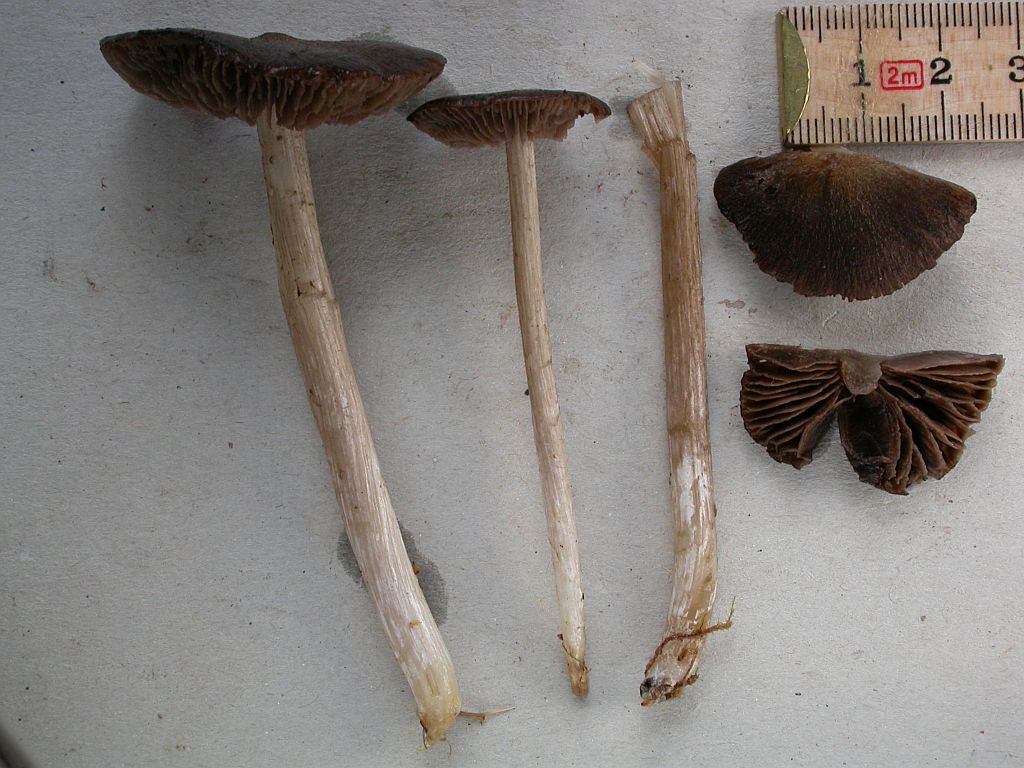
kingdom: Fungi
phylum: Basidiomycota
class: Agaricomycetes
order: Agaricales
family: Entolomataceae
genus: Entoloma
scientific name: Entoloma jubatum
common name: ruskællet rødblad
